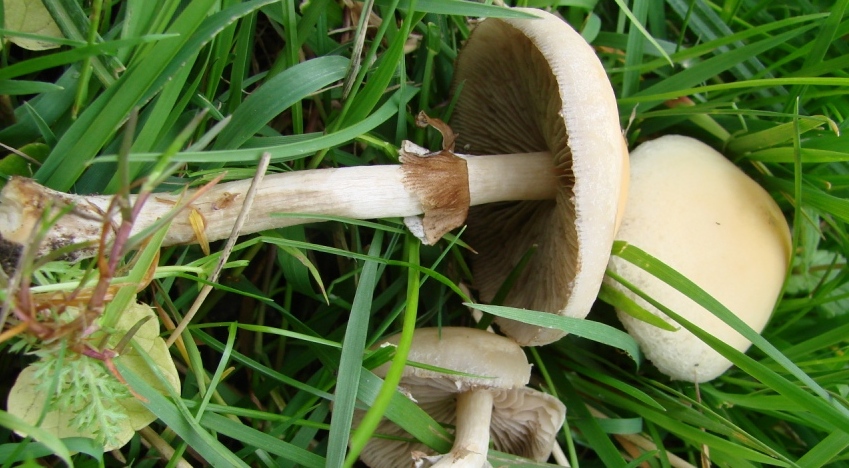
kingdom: Fungi
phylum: Basidiomycota
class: Agaricomycetes
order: Agaricales
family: Strophariaceae
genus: Agrocybe
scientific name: Agrocybe praecox
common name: tidlig agerhat
